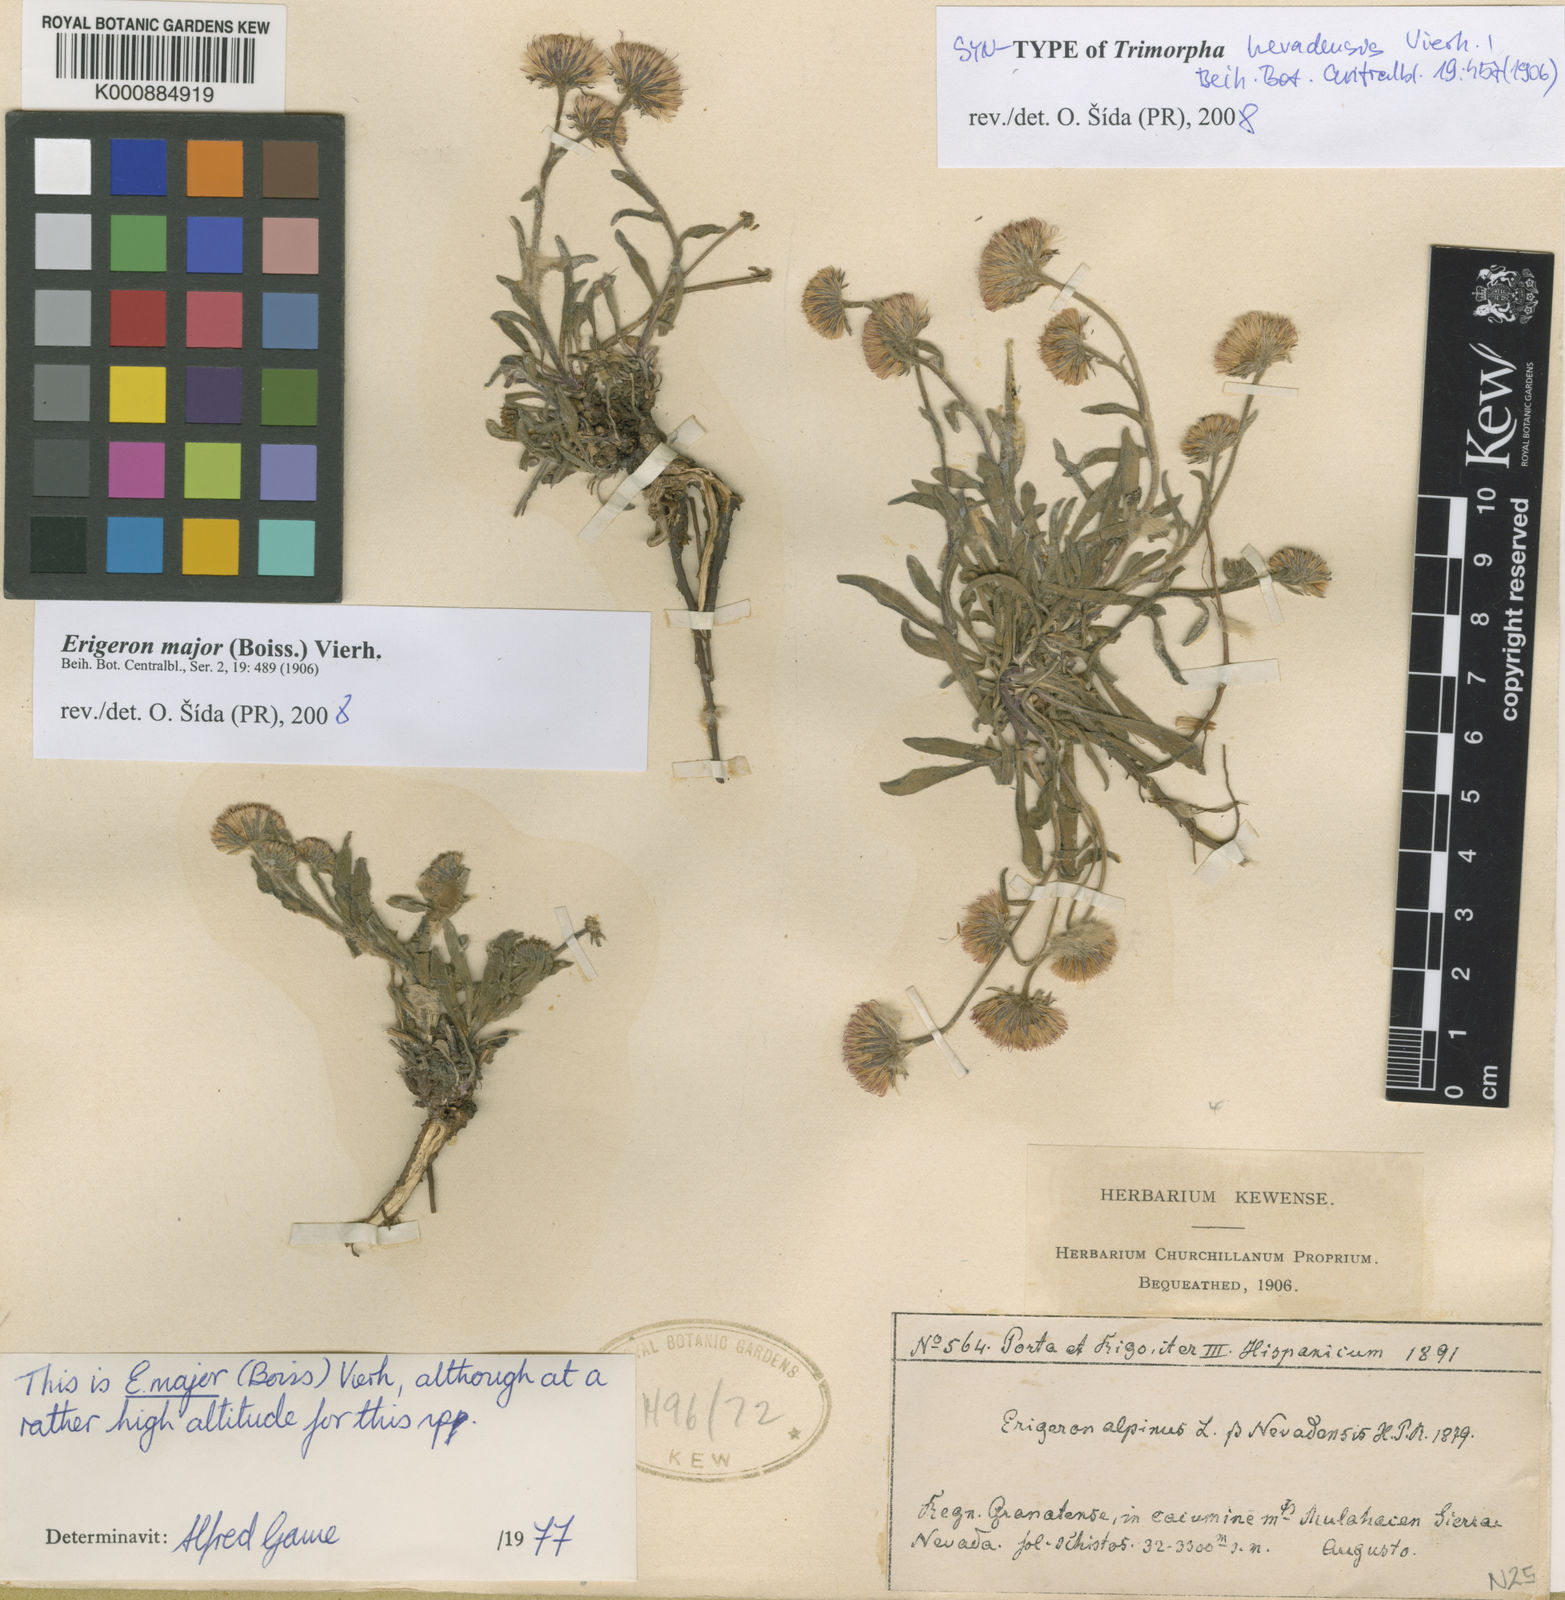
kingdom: Plantae
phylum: Tracheophyta
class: Magnoliopsida
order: Asterales
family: Asteraceae
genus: Erigeron
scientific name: Erigeron major
